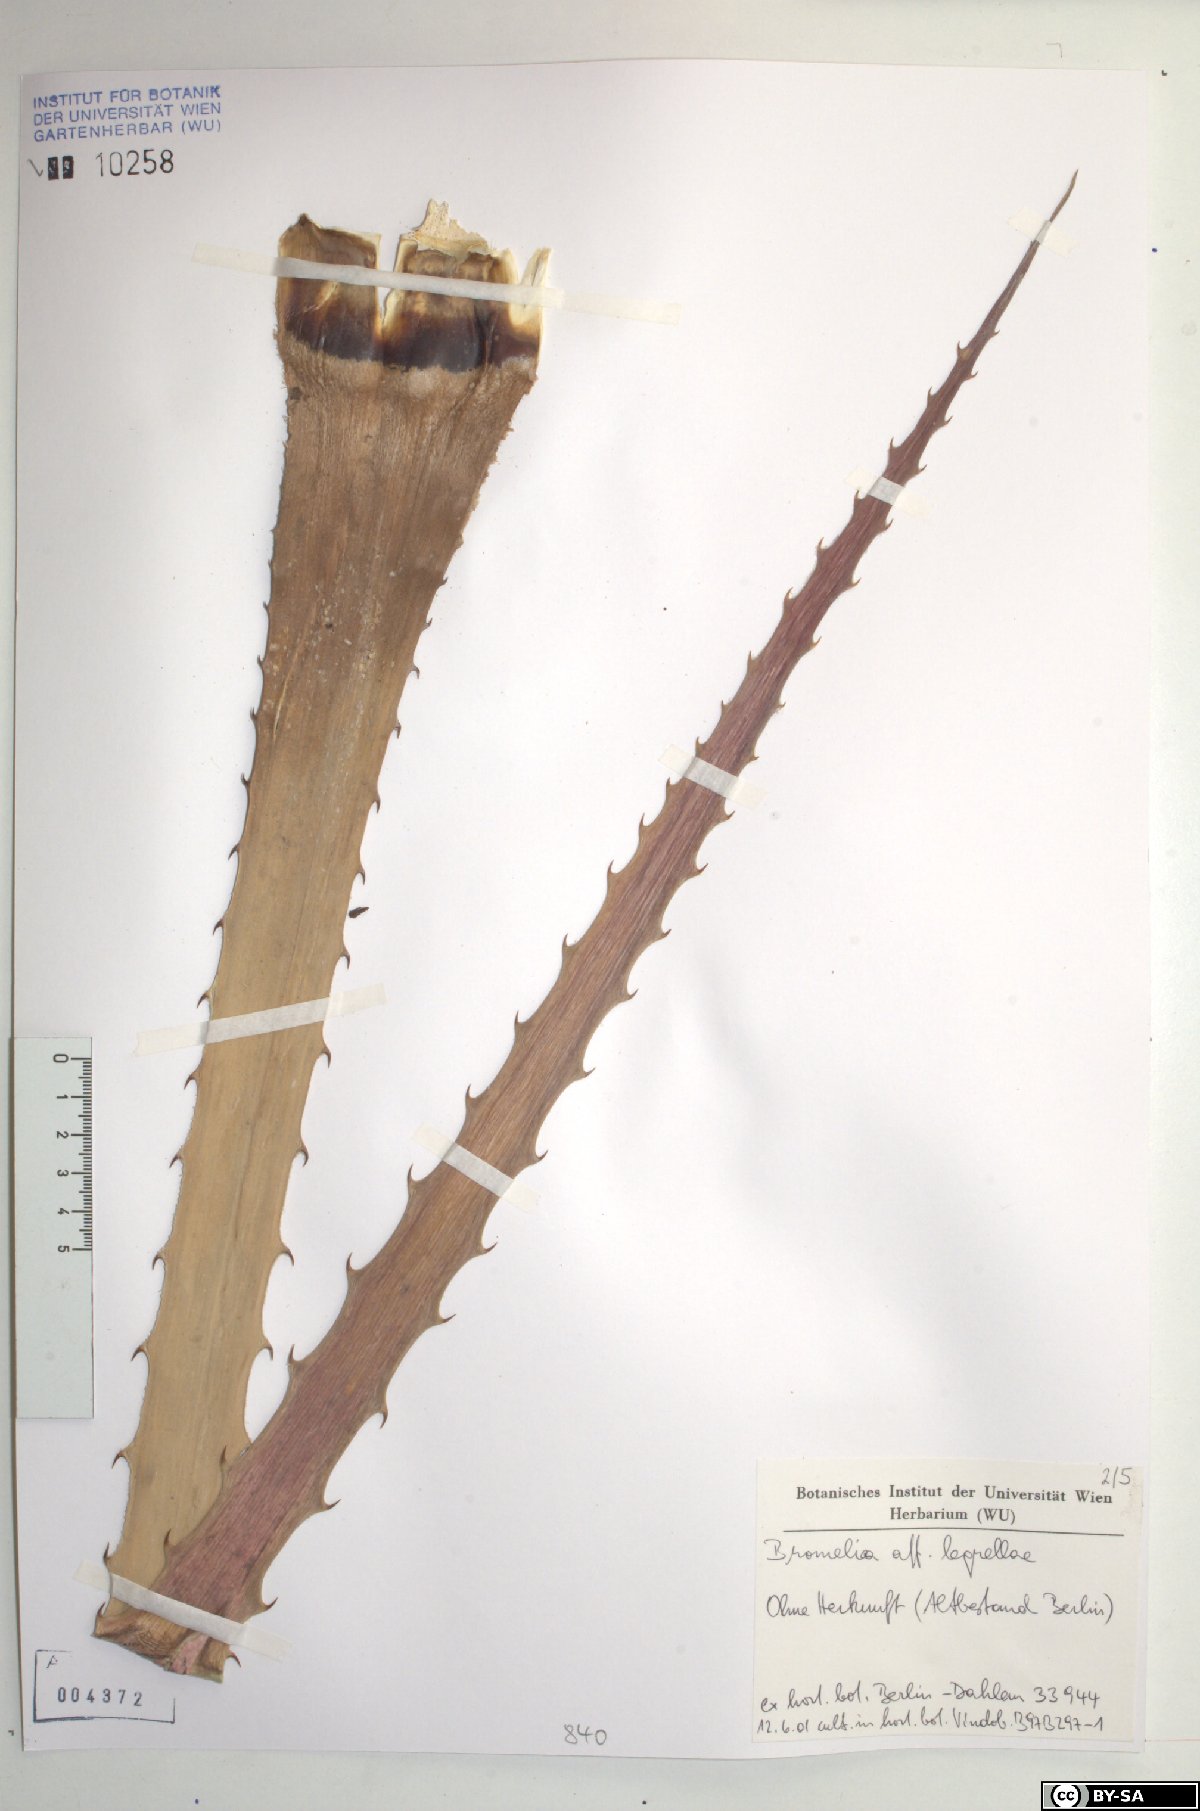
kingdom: Plantae
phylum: Tracheophyta
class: Liliopsida
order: Poales
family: Bromeliaceae
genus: Bromelia
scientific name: Bromelia legrellae
